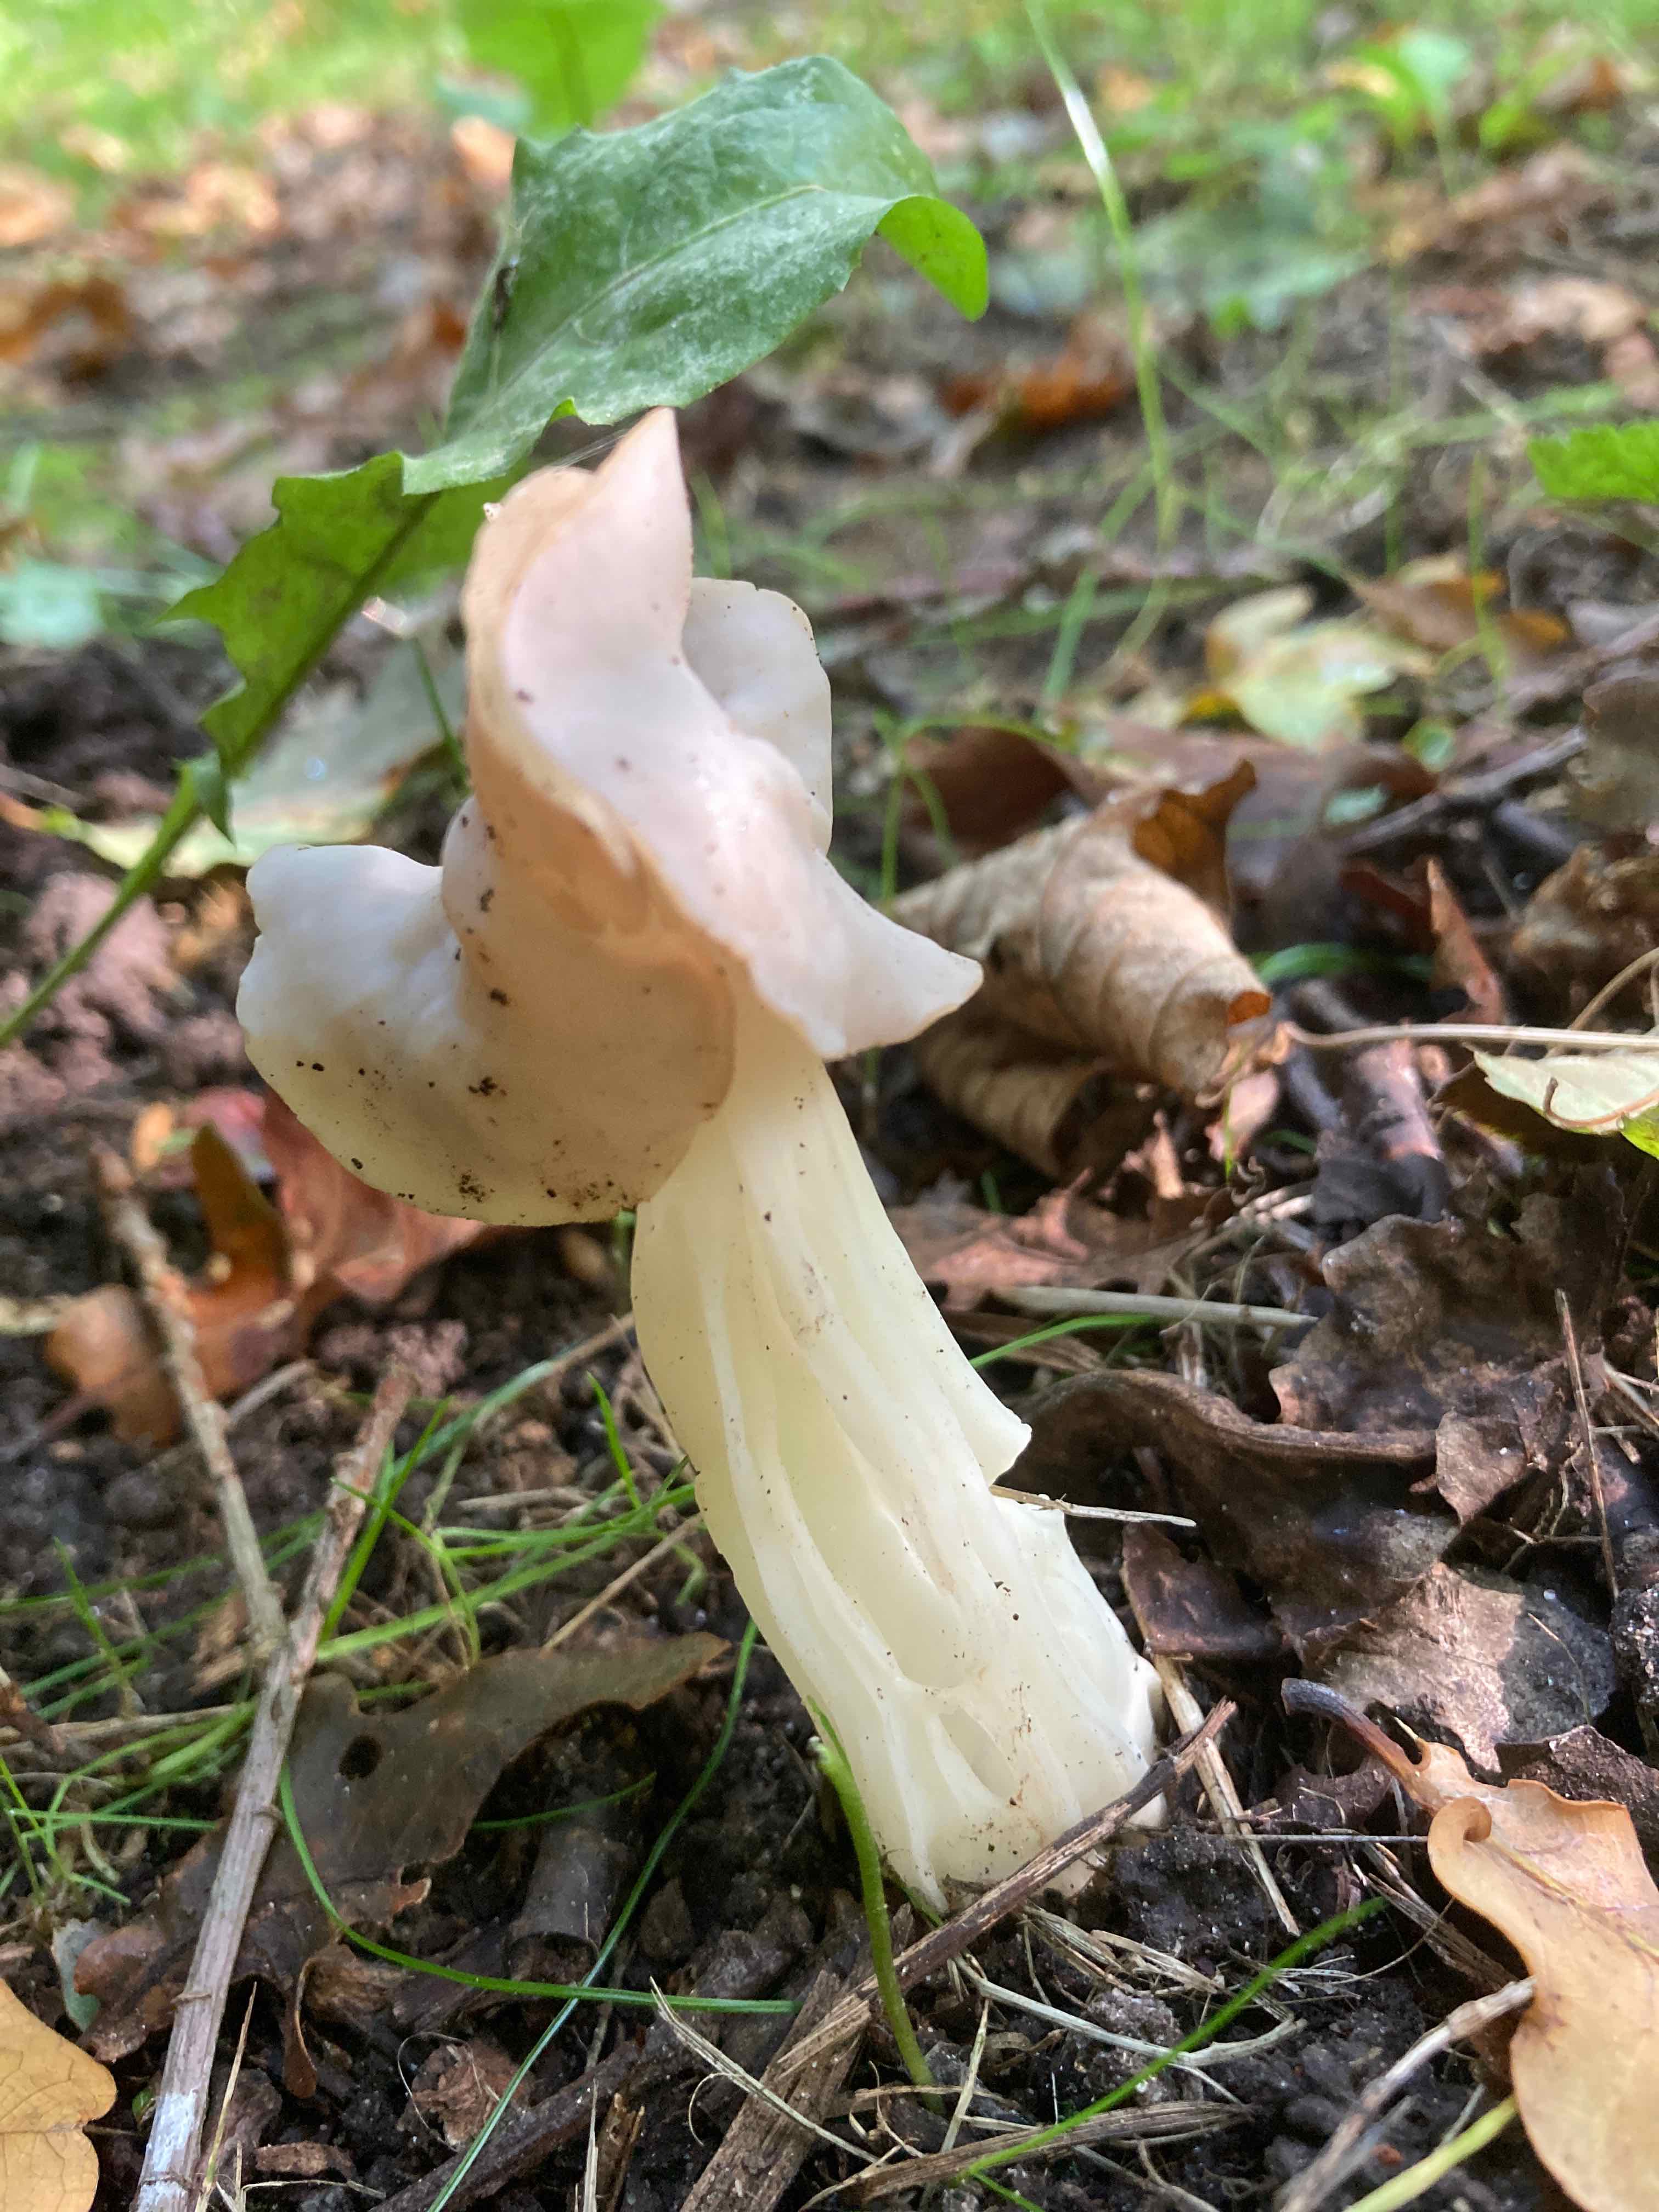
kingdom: Fungi
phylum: Ascomycota
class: Pezizomycetes
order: Pezizales
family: Helvellaceae
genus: Helvella
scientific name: Helvella crispa
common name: kruset foldhat
